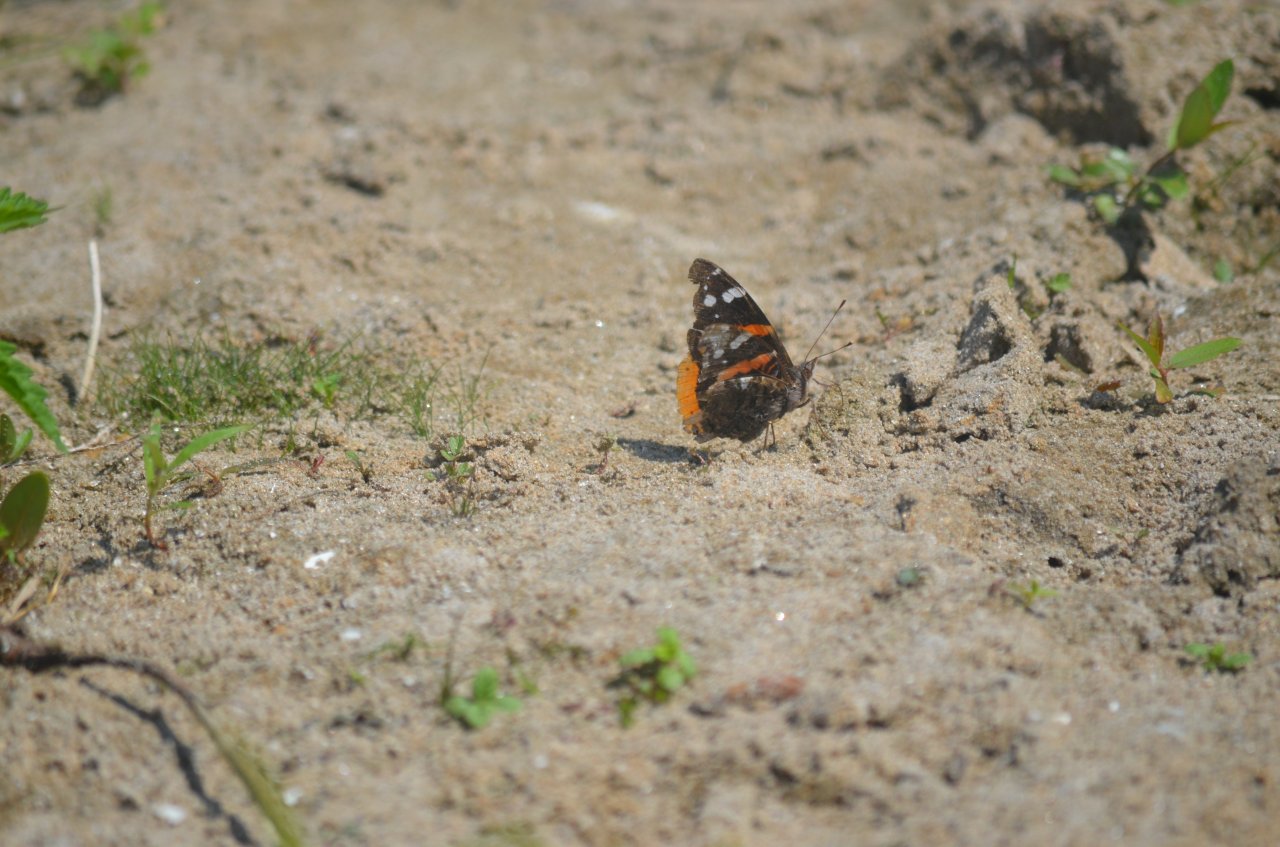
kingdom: Animalia
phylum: Arthropoda
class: Insecta
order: Lepidoptera
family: Nymphalidae
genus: Vanessa
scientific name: Vanessa atalanta
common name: Red Admiral
